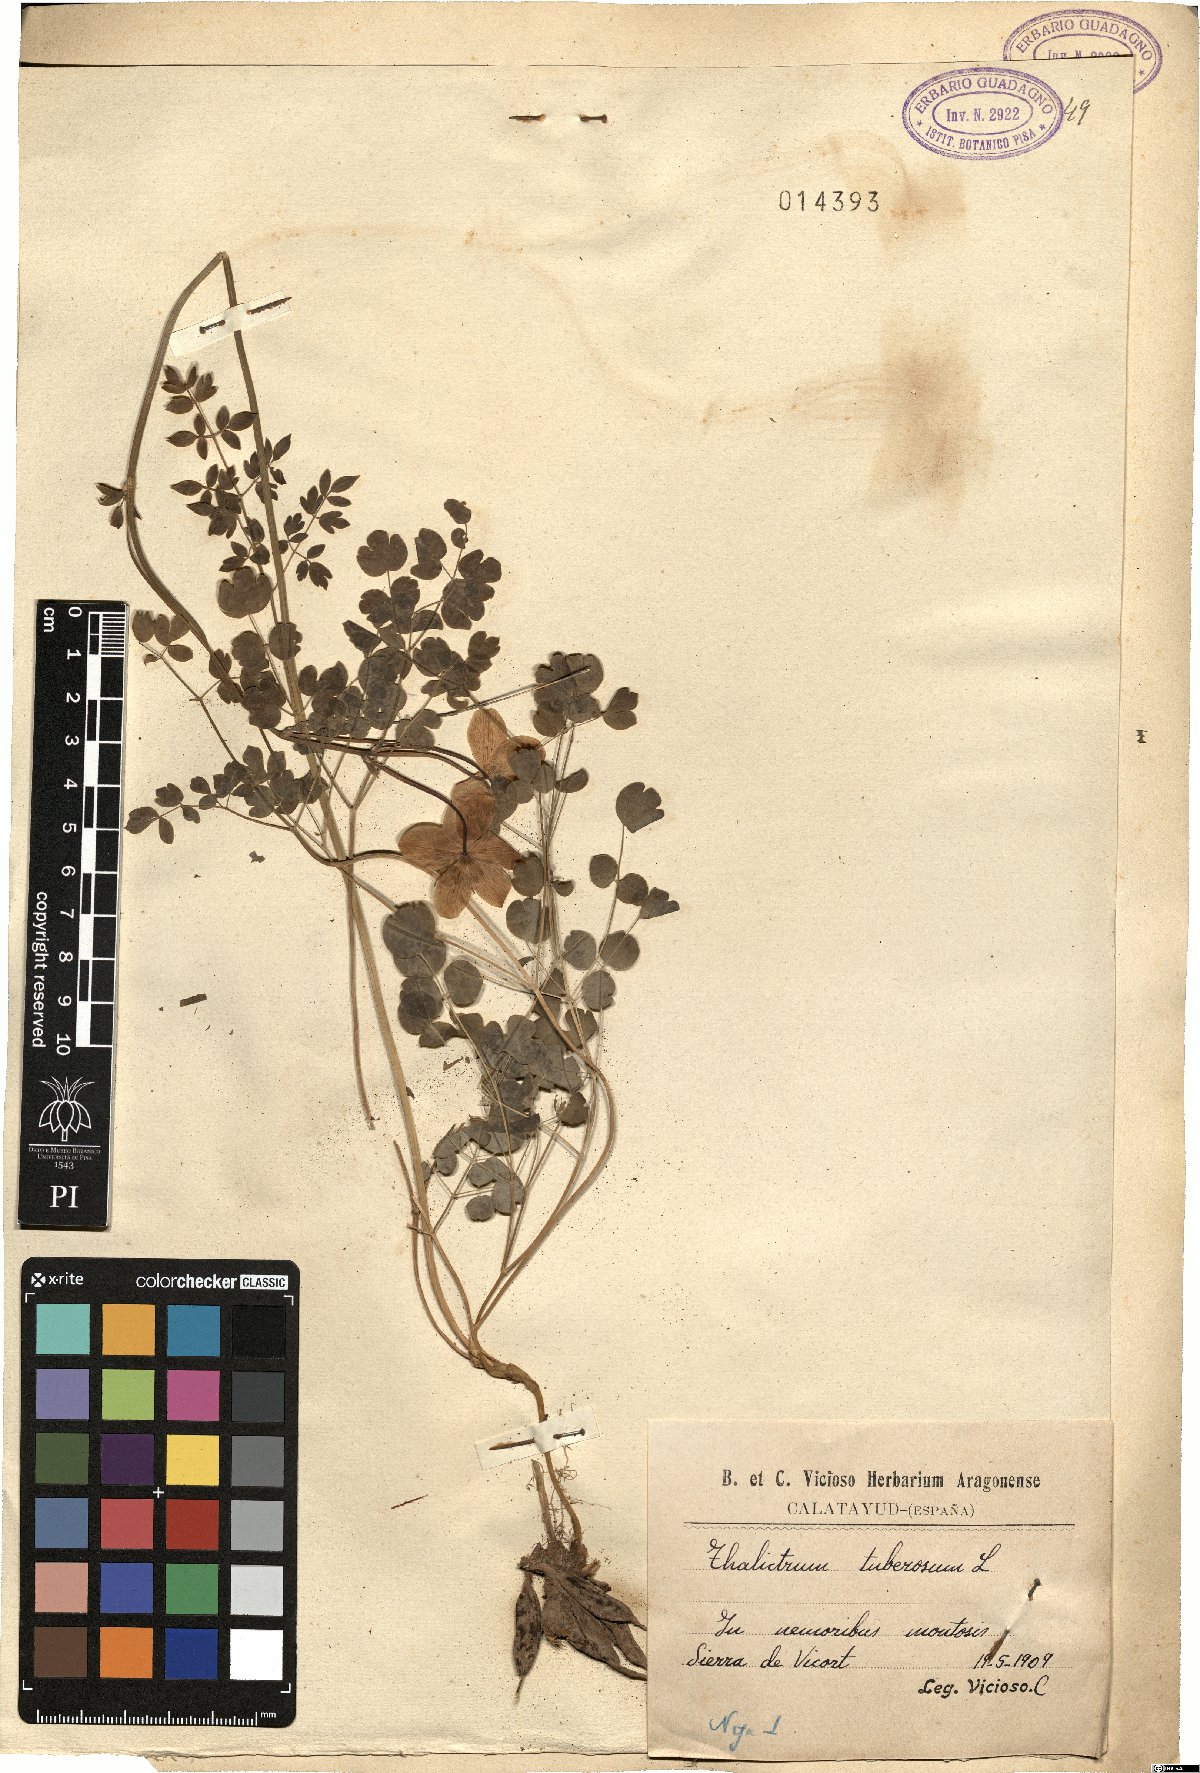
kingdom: Plantae
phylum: Tracheophyta
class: Magnoliopsida
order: Ranunculales
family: Ranunculaceae
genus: Thalictrum
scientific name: Thalictrum tuberosum
